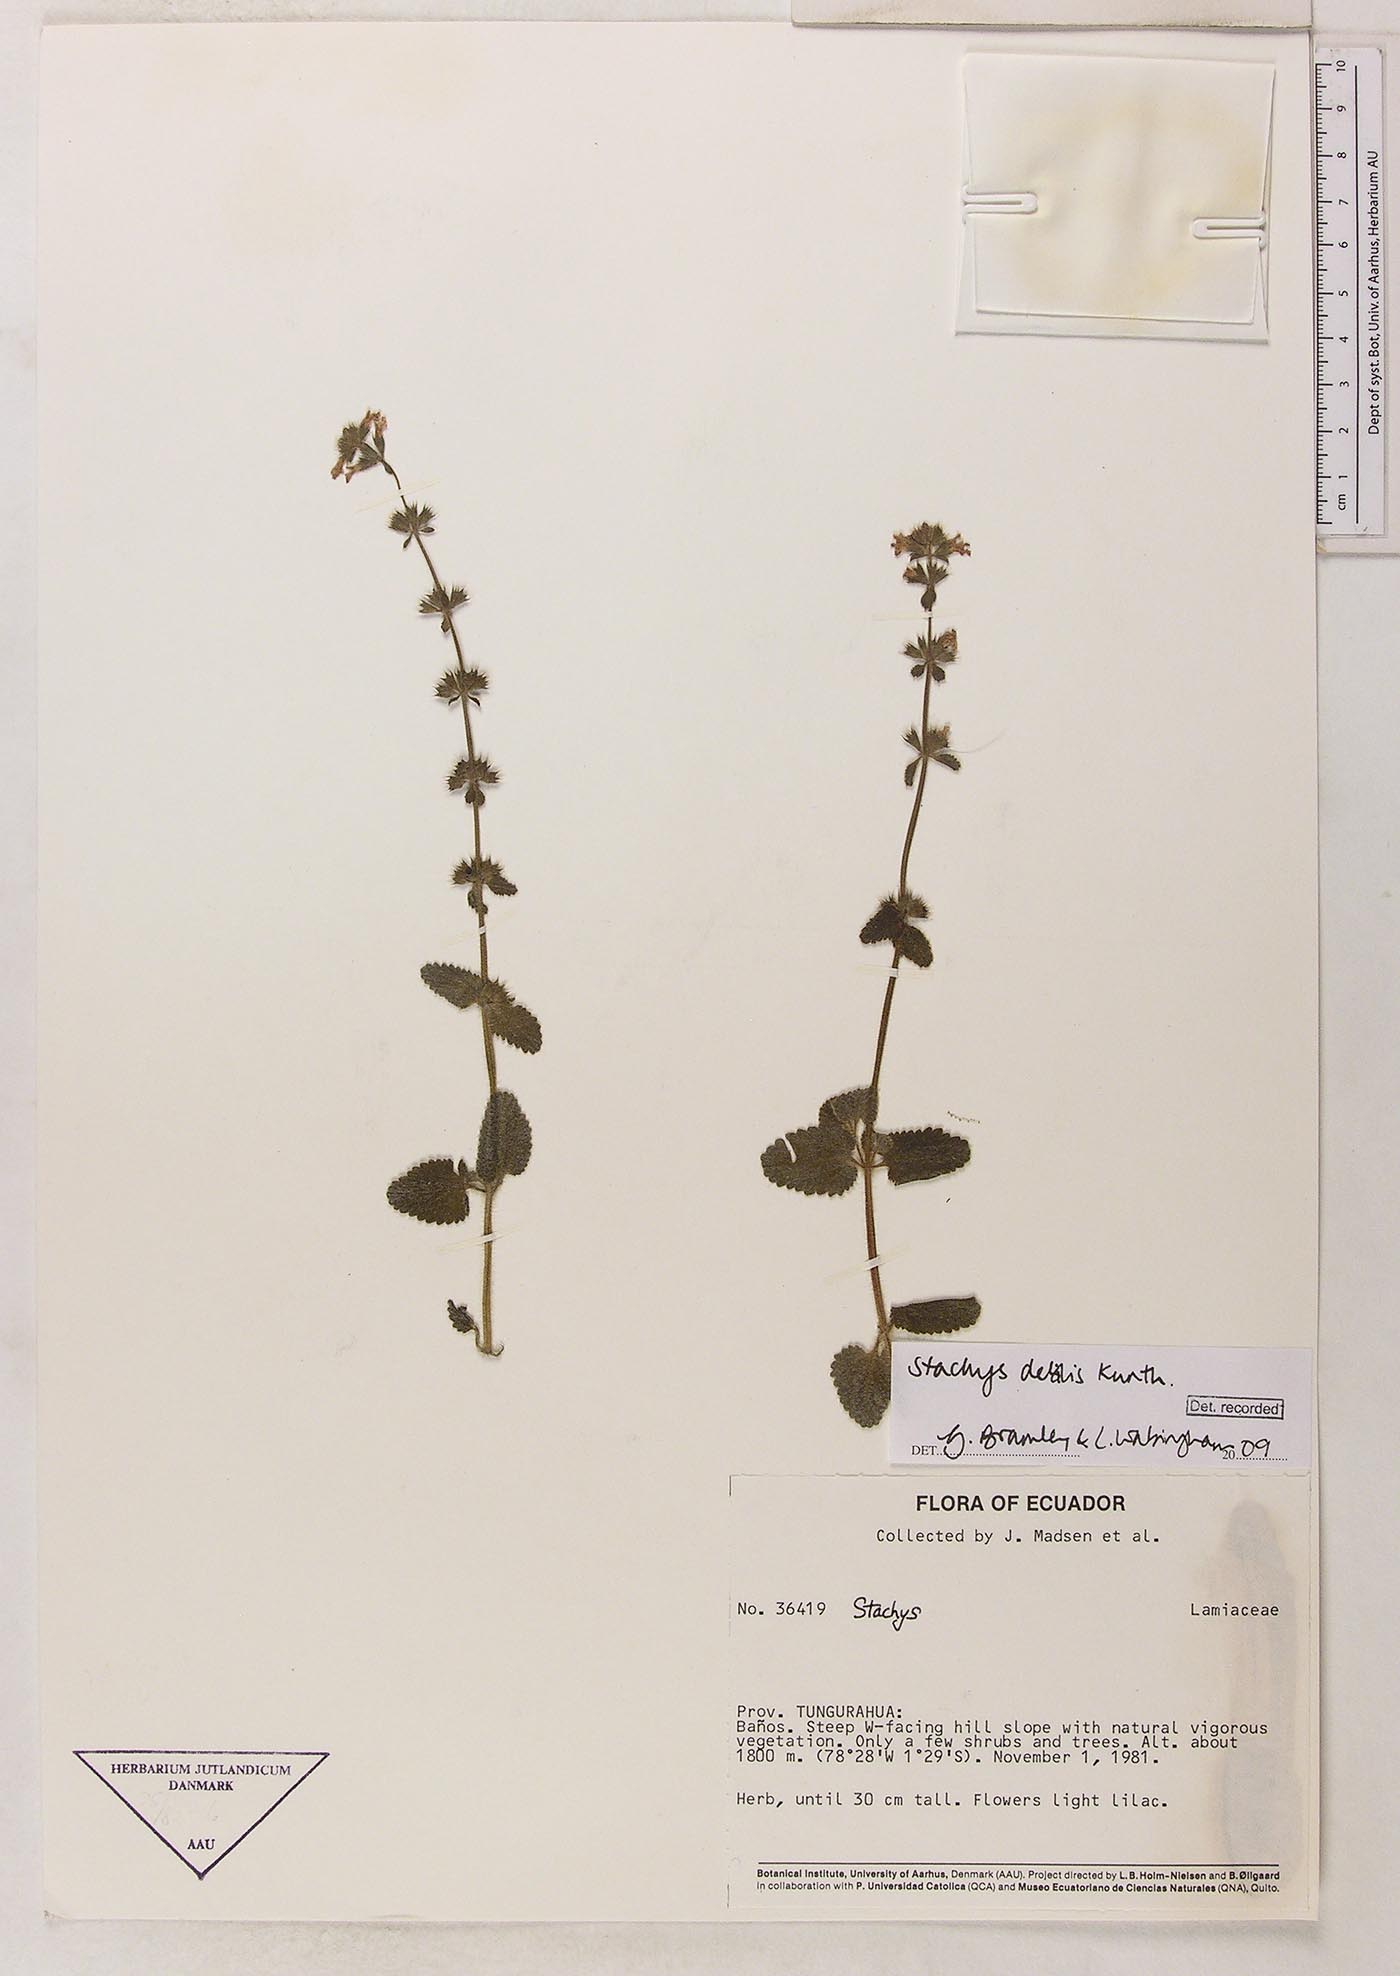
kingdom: Plantae
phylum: Tracheophyta
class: Magnoliopsida
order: Lamiales
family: Lamiaceae
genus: Stachys
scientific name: Stachys debilis
